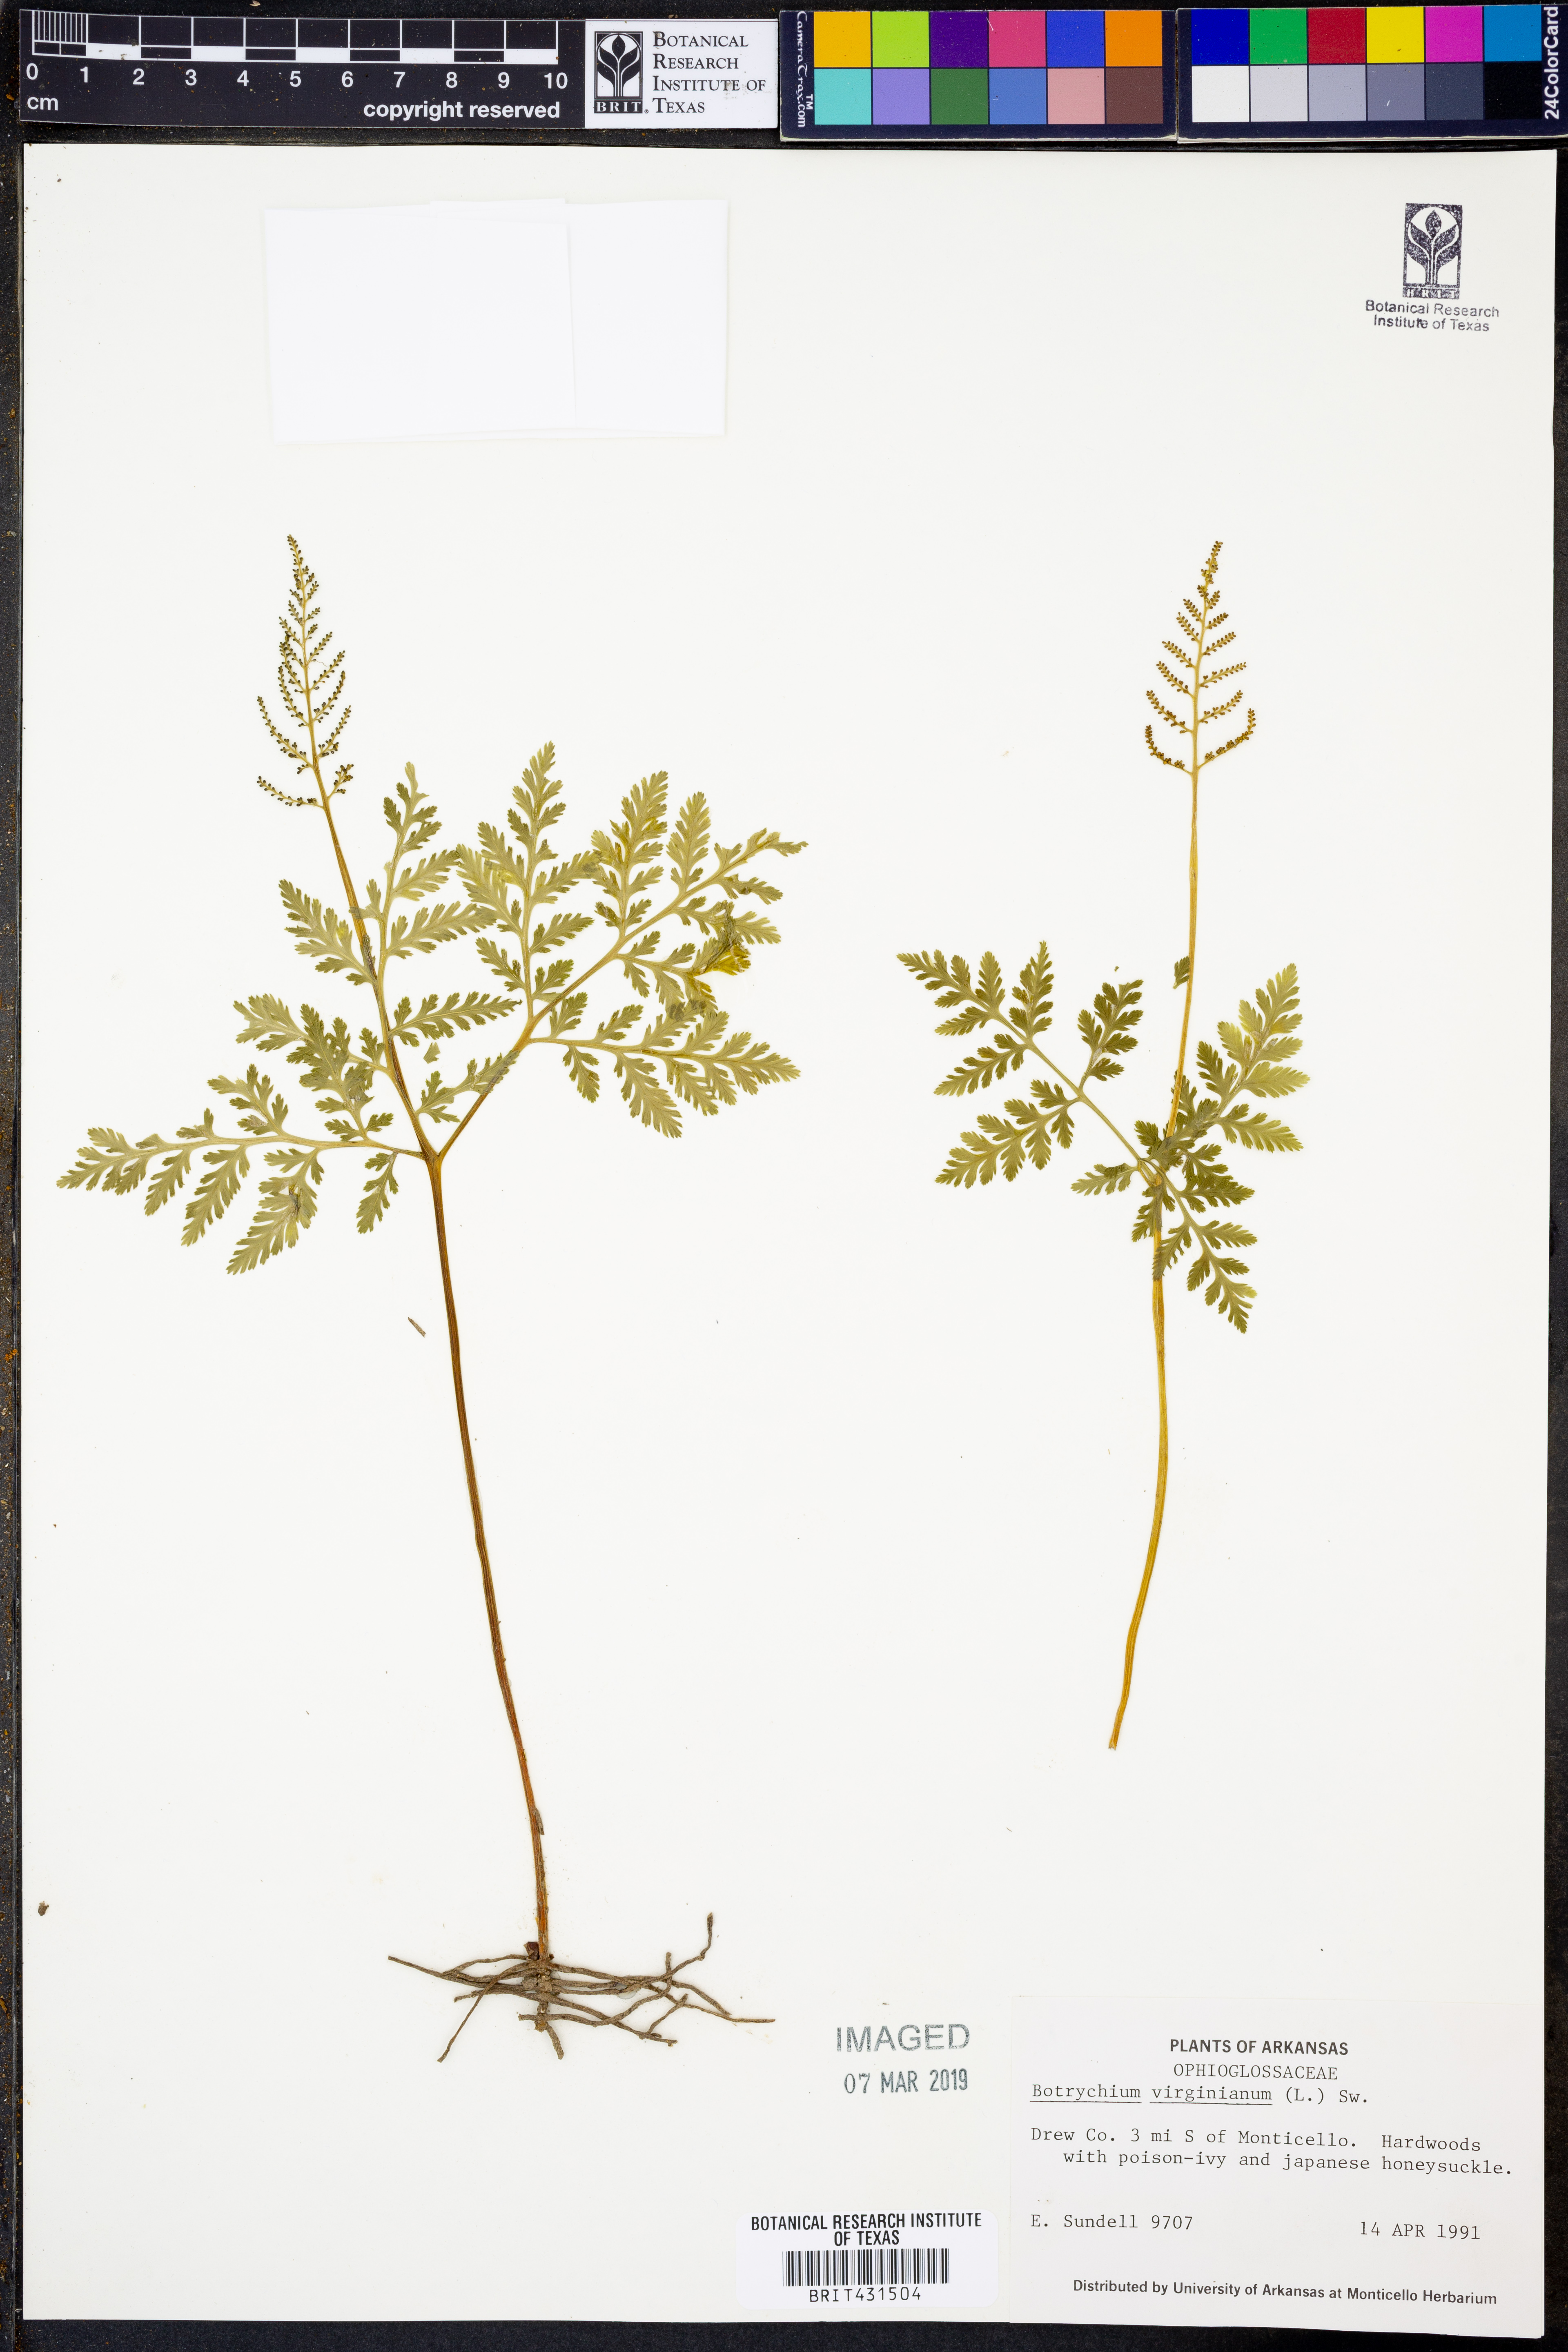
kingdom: Plantae
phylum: Tracheophyta
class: Polypodiopsida
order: Ophioglossales
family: Ophioglossaceae
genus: Botrypus
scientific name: Botrypus virginianus
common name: Common grapefern
